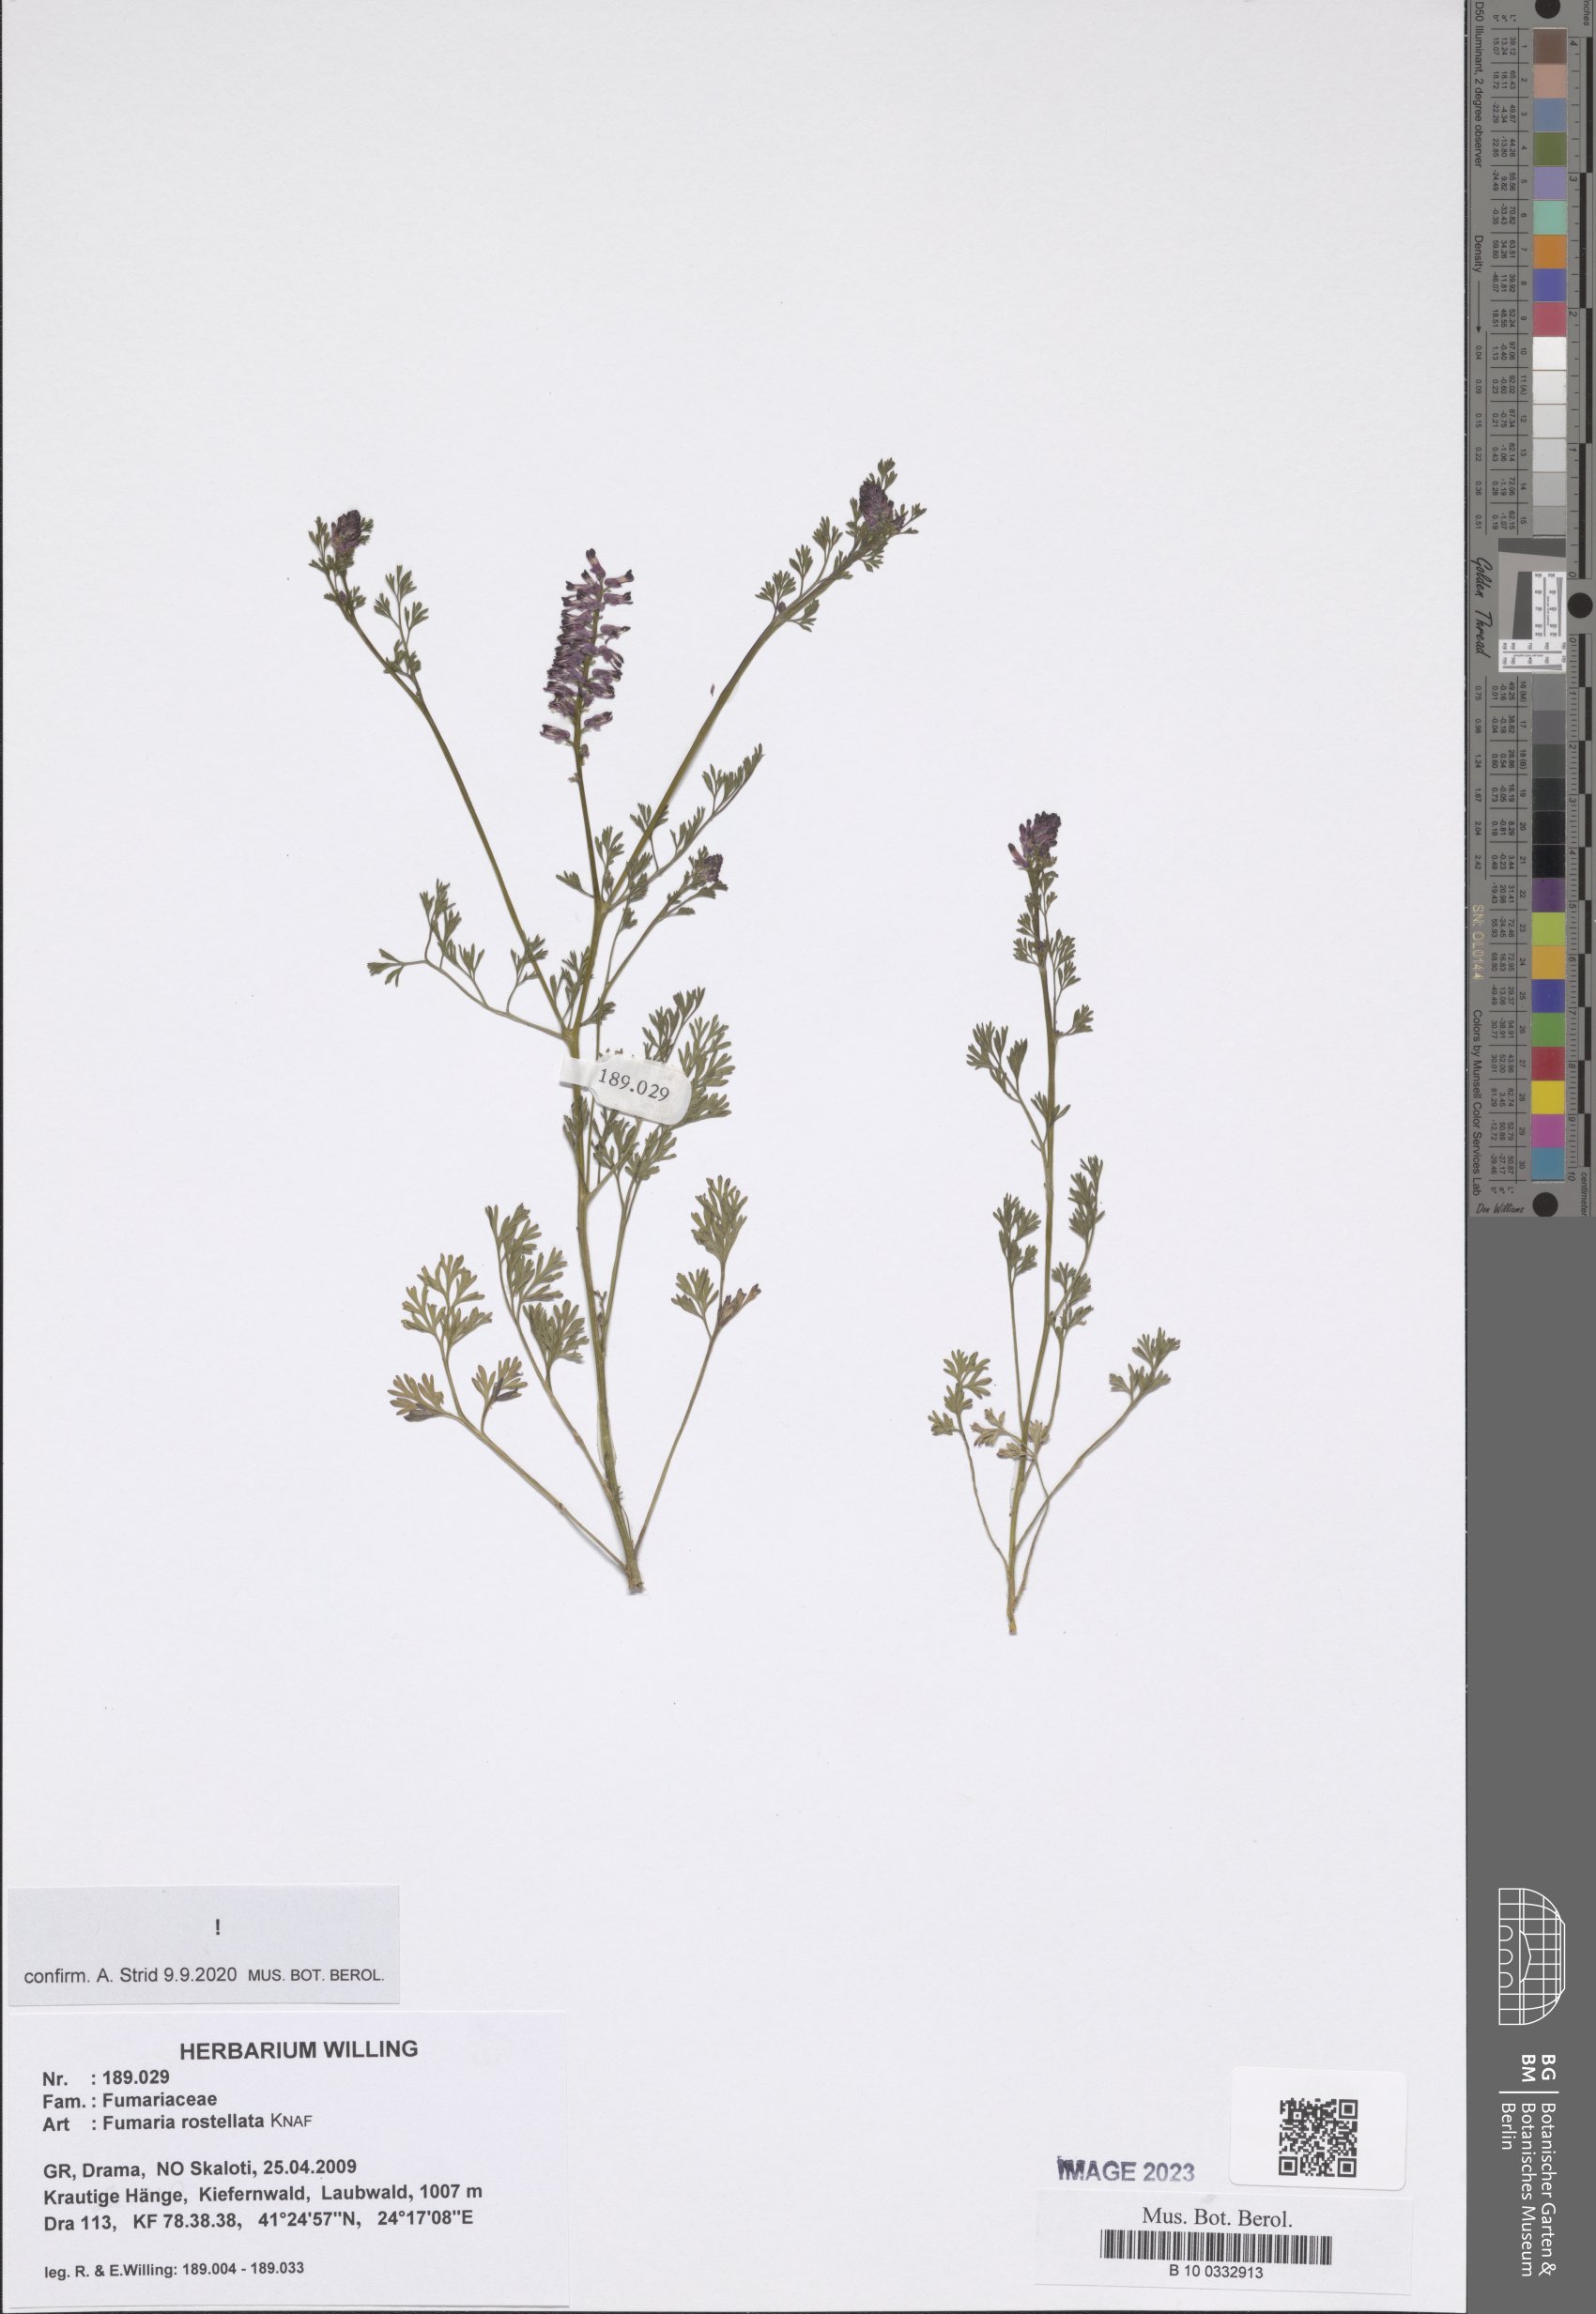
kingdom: Plantae
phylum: Tracheophyta
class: Magnoliopsida
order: Ranunculales
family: Papaveraceae
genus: Fumaria
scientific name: Fumaria rostellata
